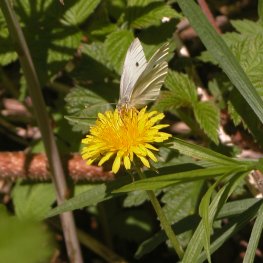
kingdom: Animalia
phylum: Arthropoda
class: Insecta
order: Lepidoptera
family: Pieridae
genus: Pieris
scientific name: Pieris rapae
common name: Cabbage White
